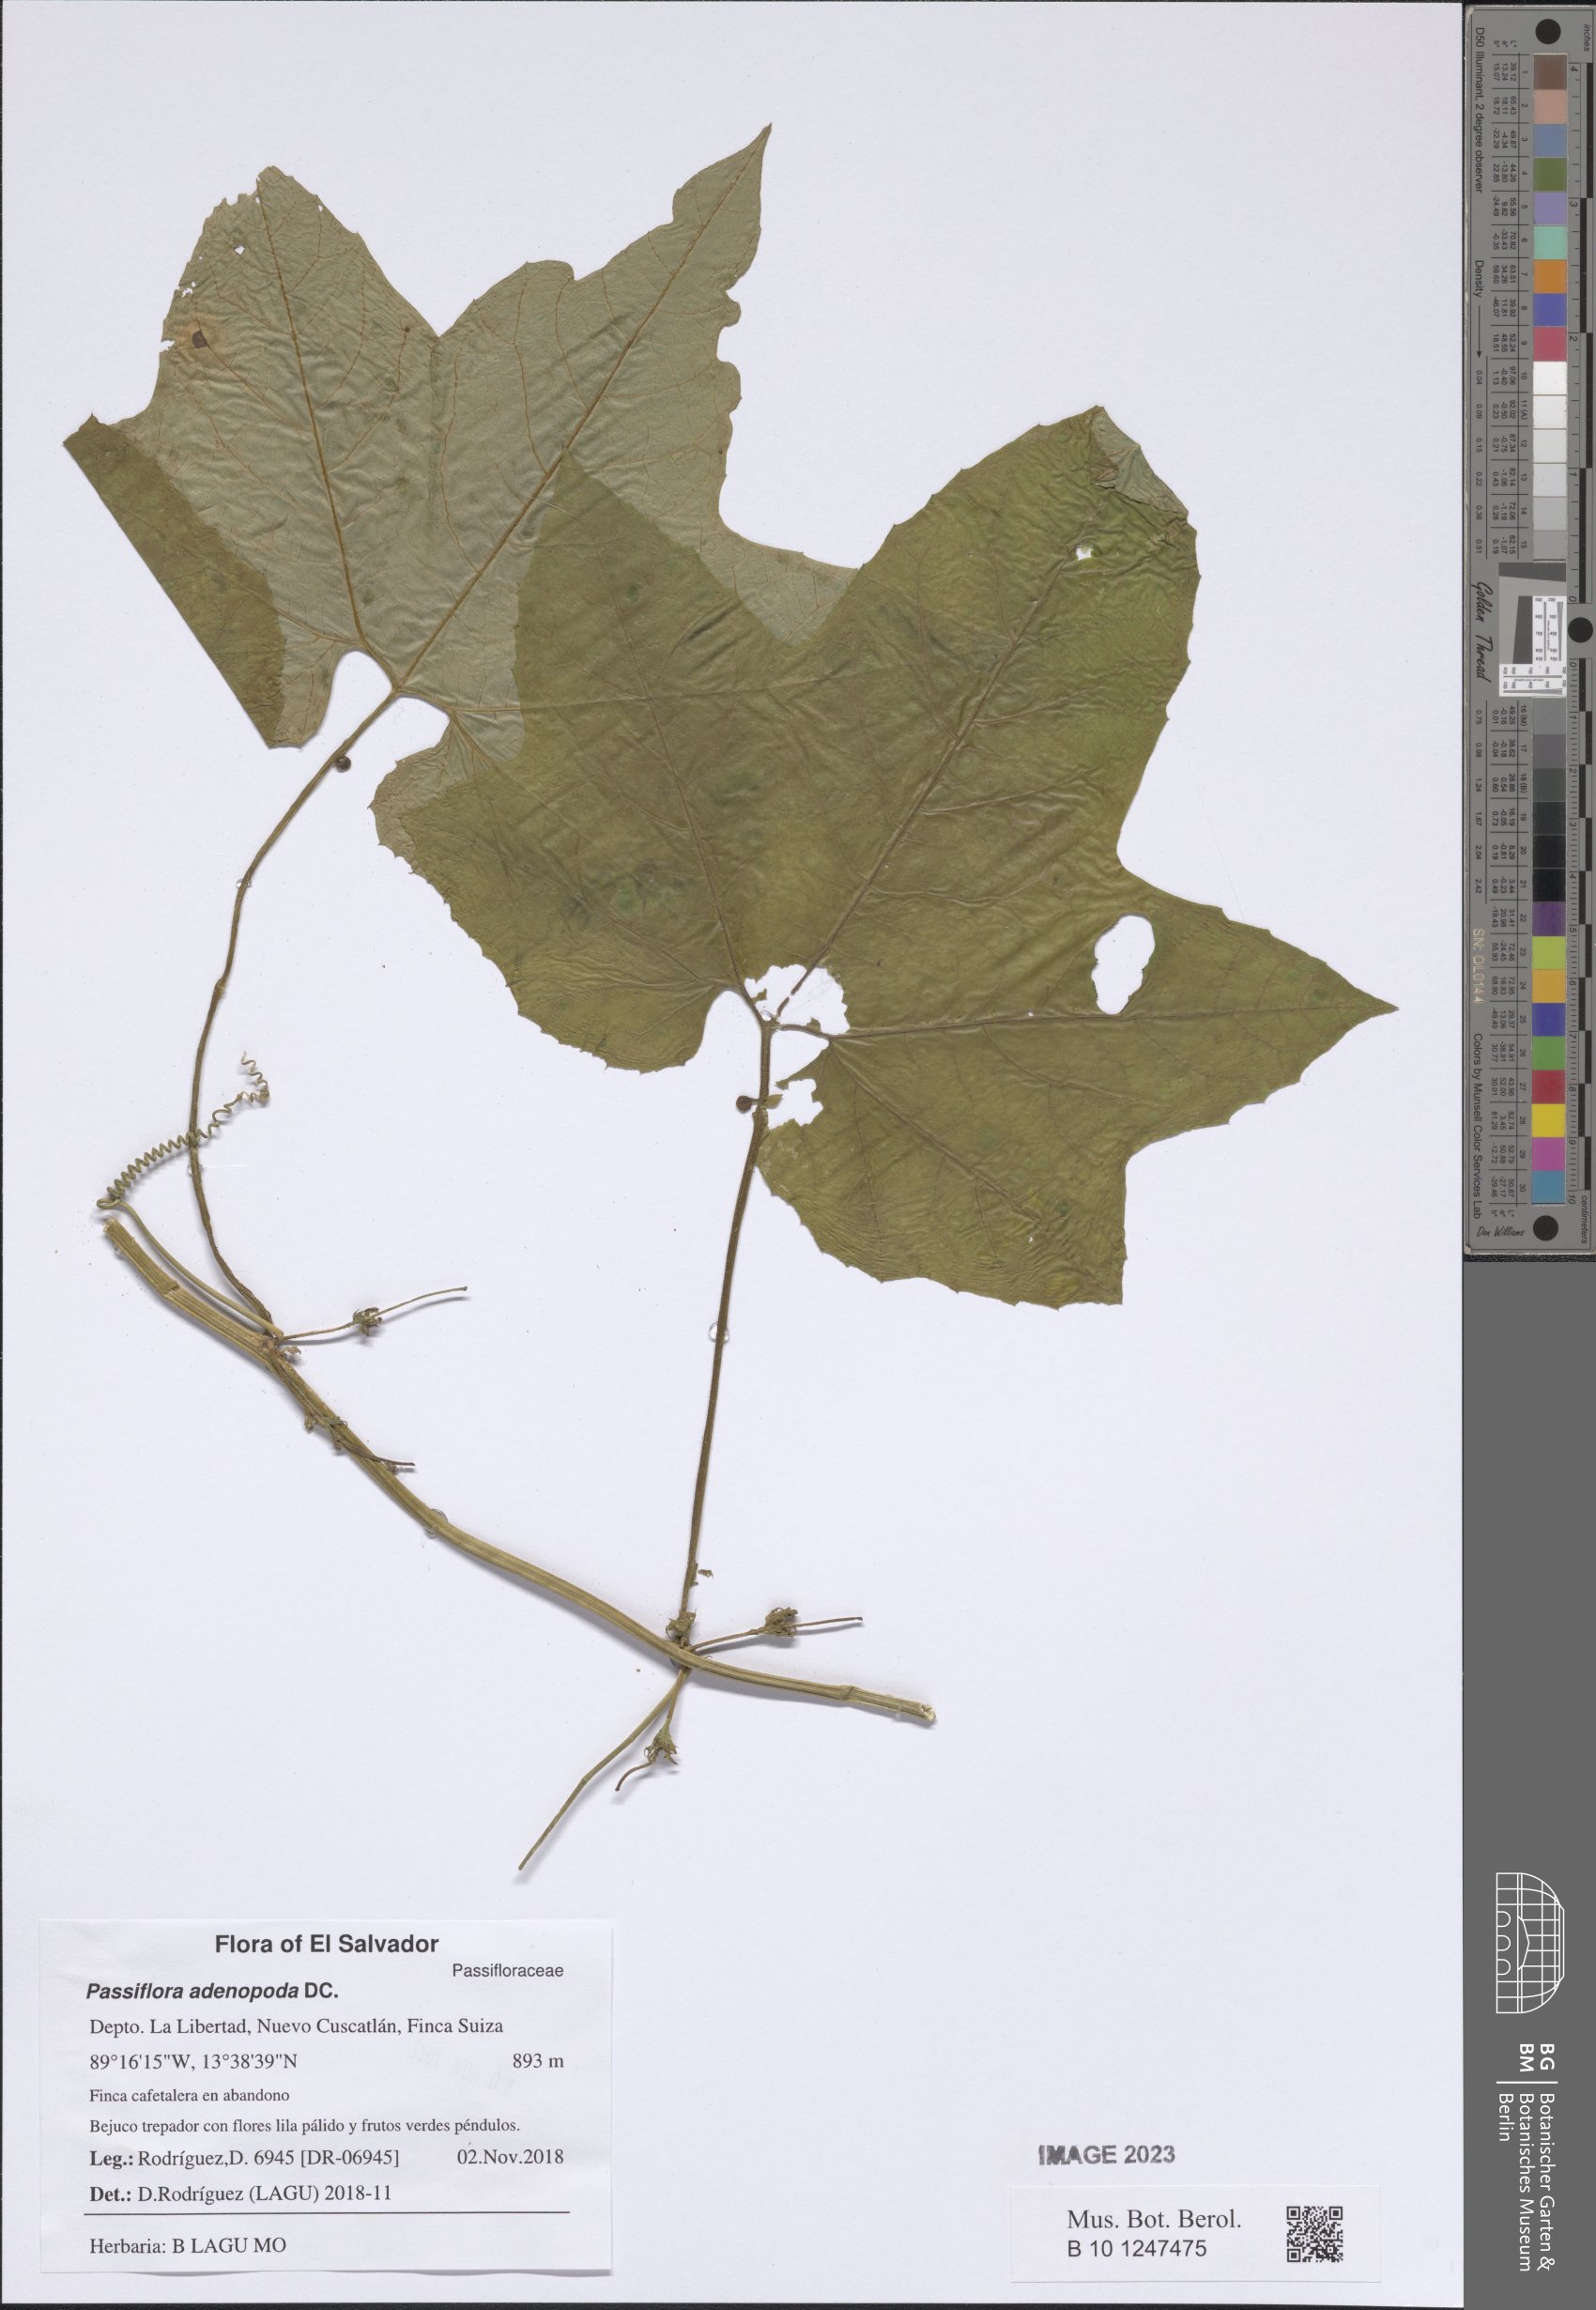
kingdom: Plantae
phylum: Tracheophyta
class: Magnoliopsida
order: Malpighiales
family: Passifloraceae
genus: Passiflora
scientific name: Passiflora adenopoda
